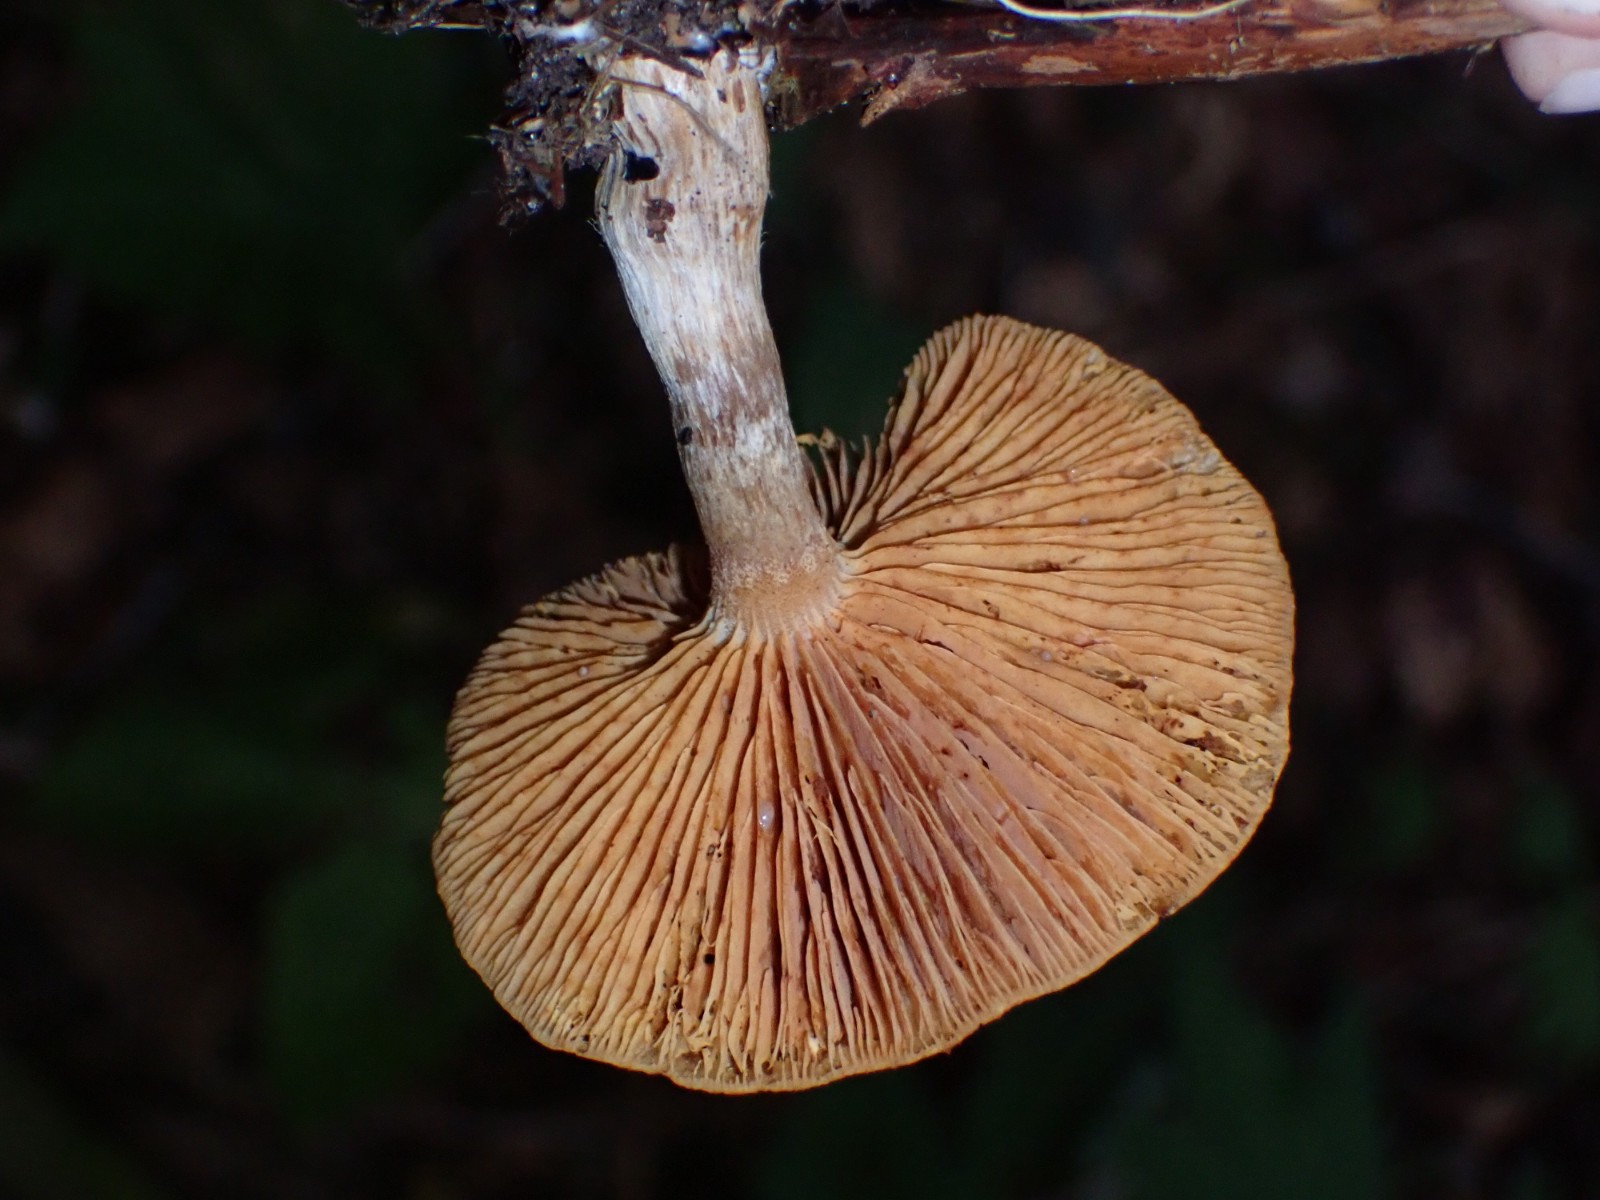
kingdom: Fungi
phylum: Basidiomycota
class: Agaricomycetes
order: Agaricales
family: Hymenogastraceae
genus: Gymnopilus
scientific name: Gymnopilus penetrans
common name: plettet flammehat
